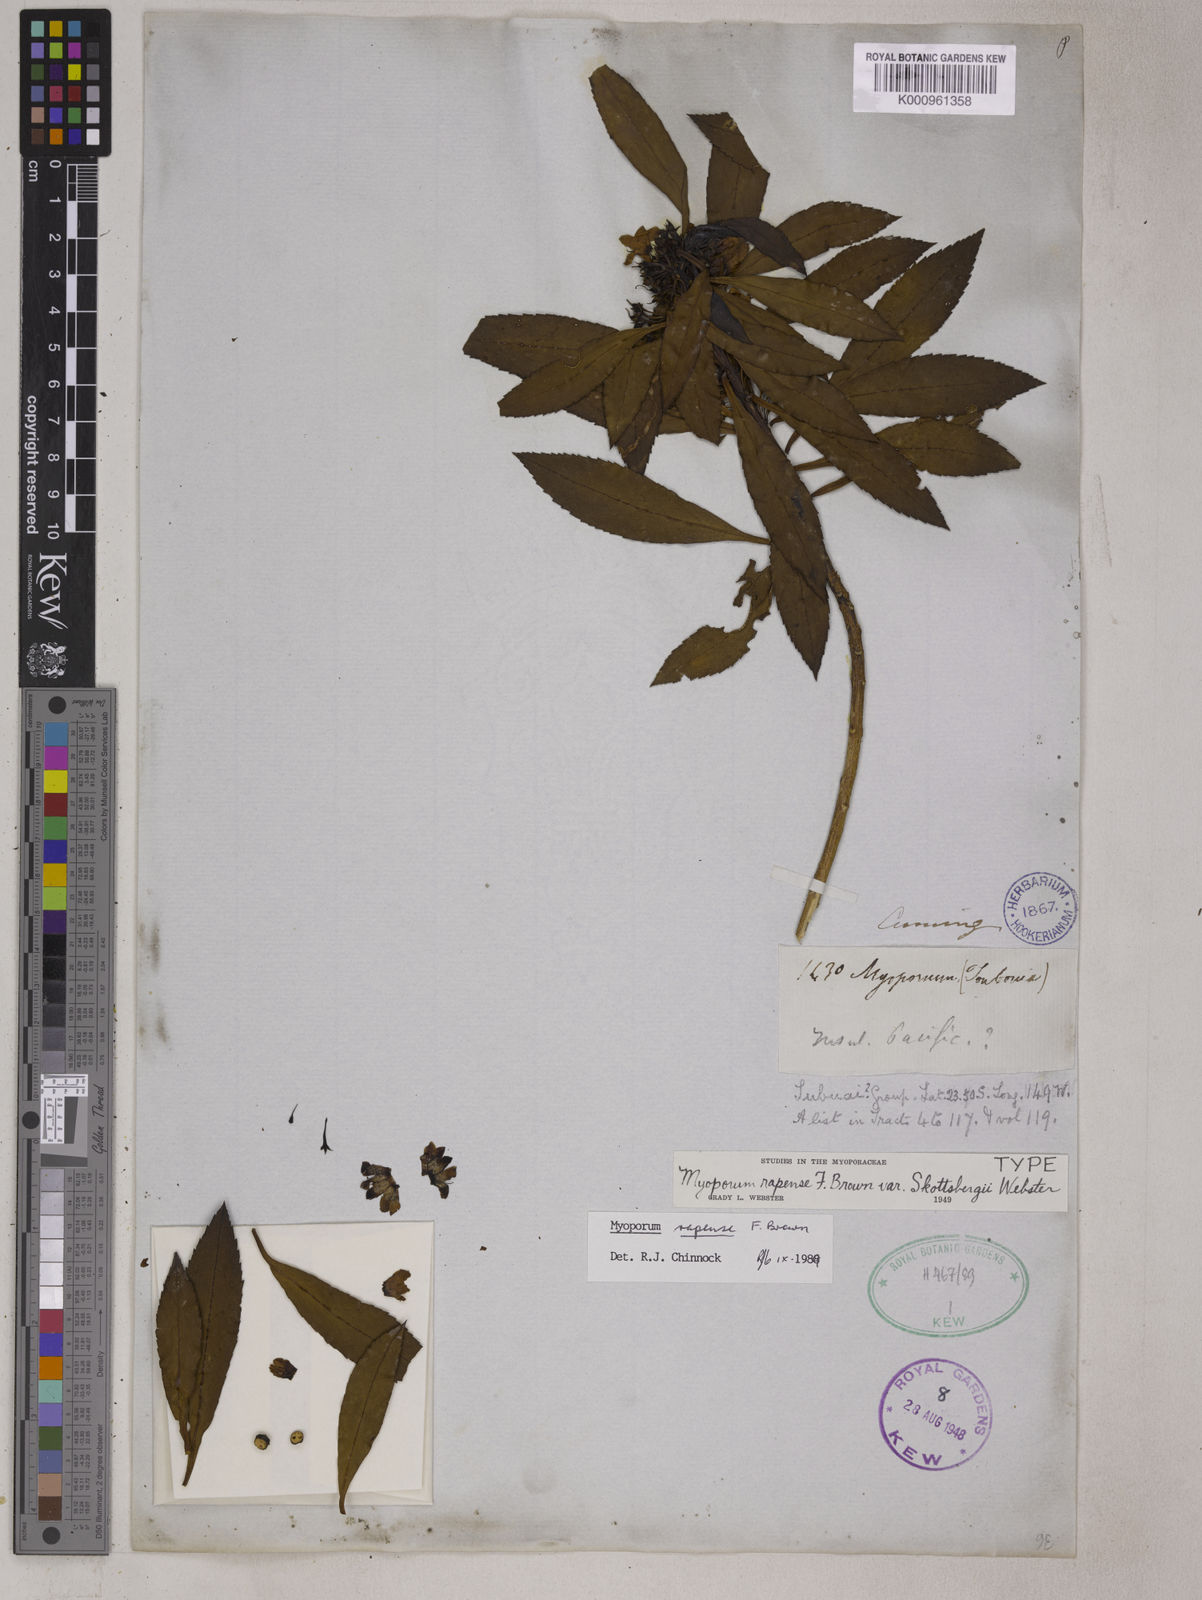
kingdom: Plantae
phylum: Tracheophyta
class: Magnoliopsida
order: Lamiales
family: Scrophulariaceae
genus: Myoporum
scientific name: Myoporum rapense
